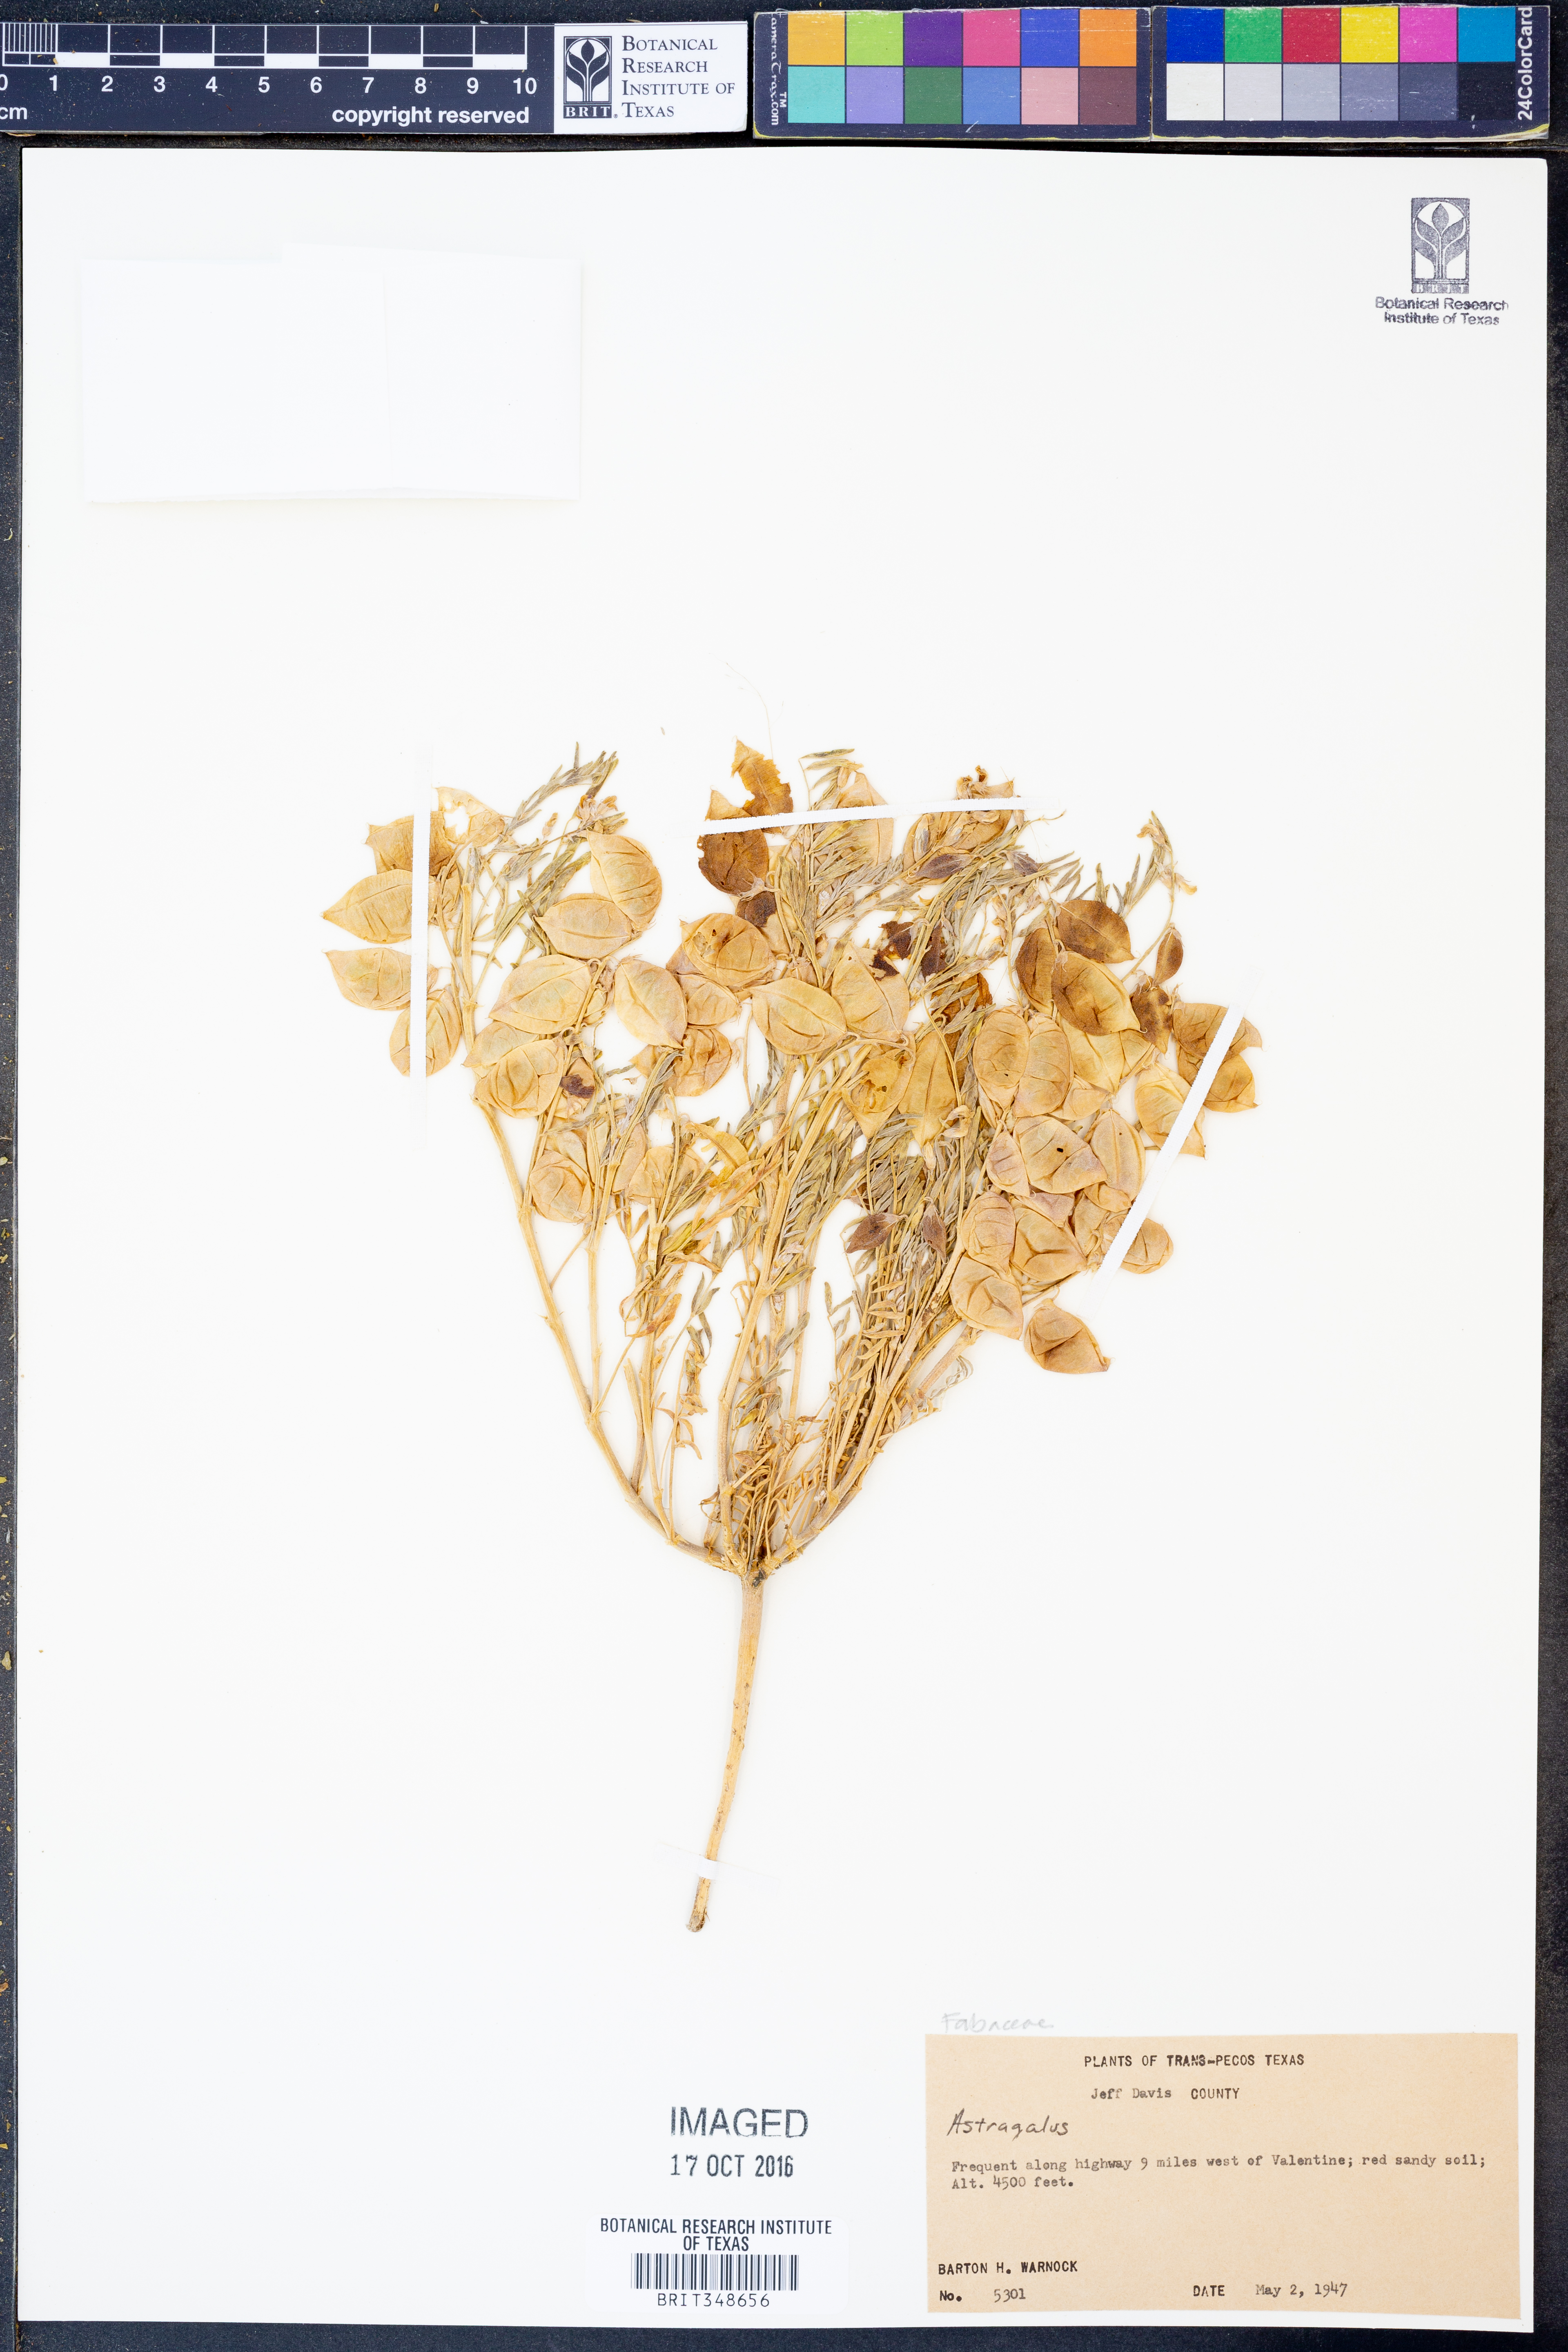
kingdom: Plantae
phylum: Tracheophyta
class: Magnoliopsida
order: Fabales
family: Fabaceae
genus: Astragalus
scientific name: Astragalus
